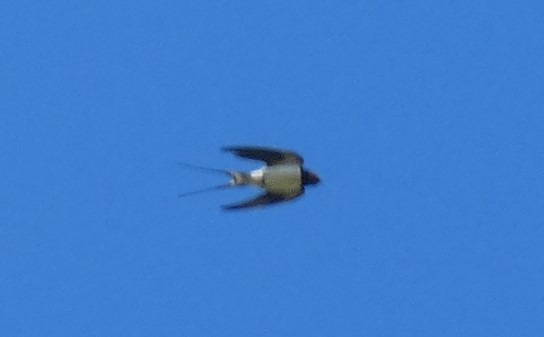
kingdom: Animalia
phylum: Chordata
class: Aves
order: Passeriformes
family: Hirundinidae
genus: Hirundo
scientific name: Hirundo rustica
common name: Landsvale
